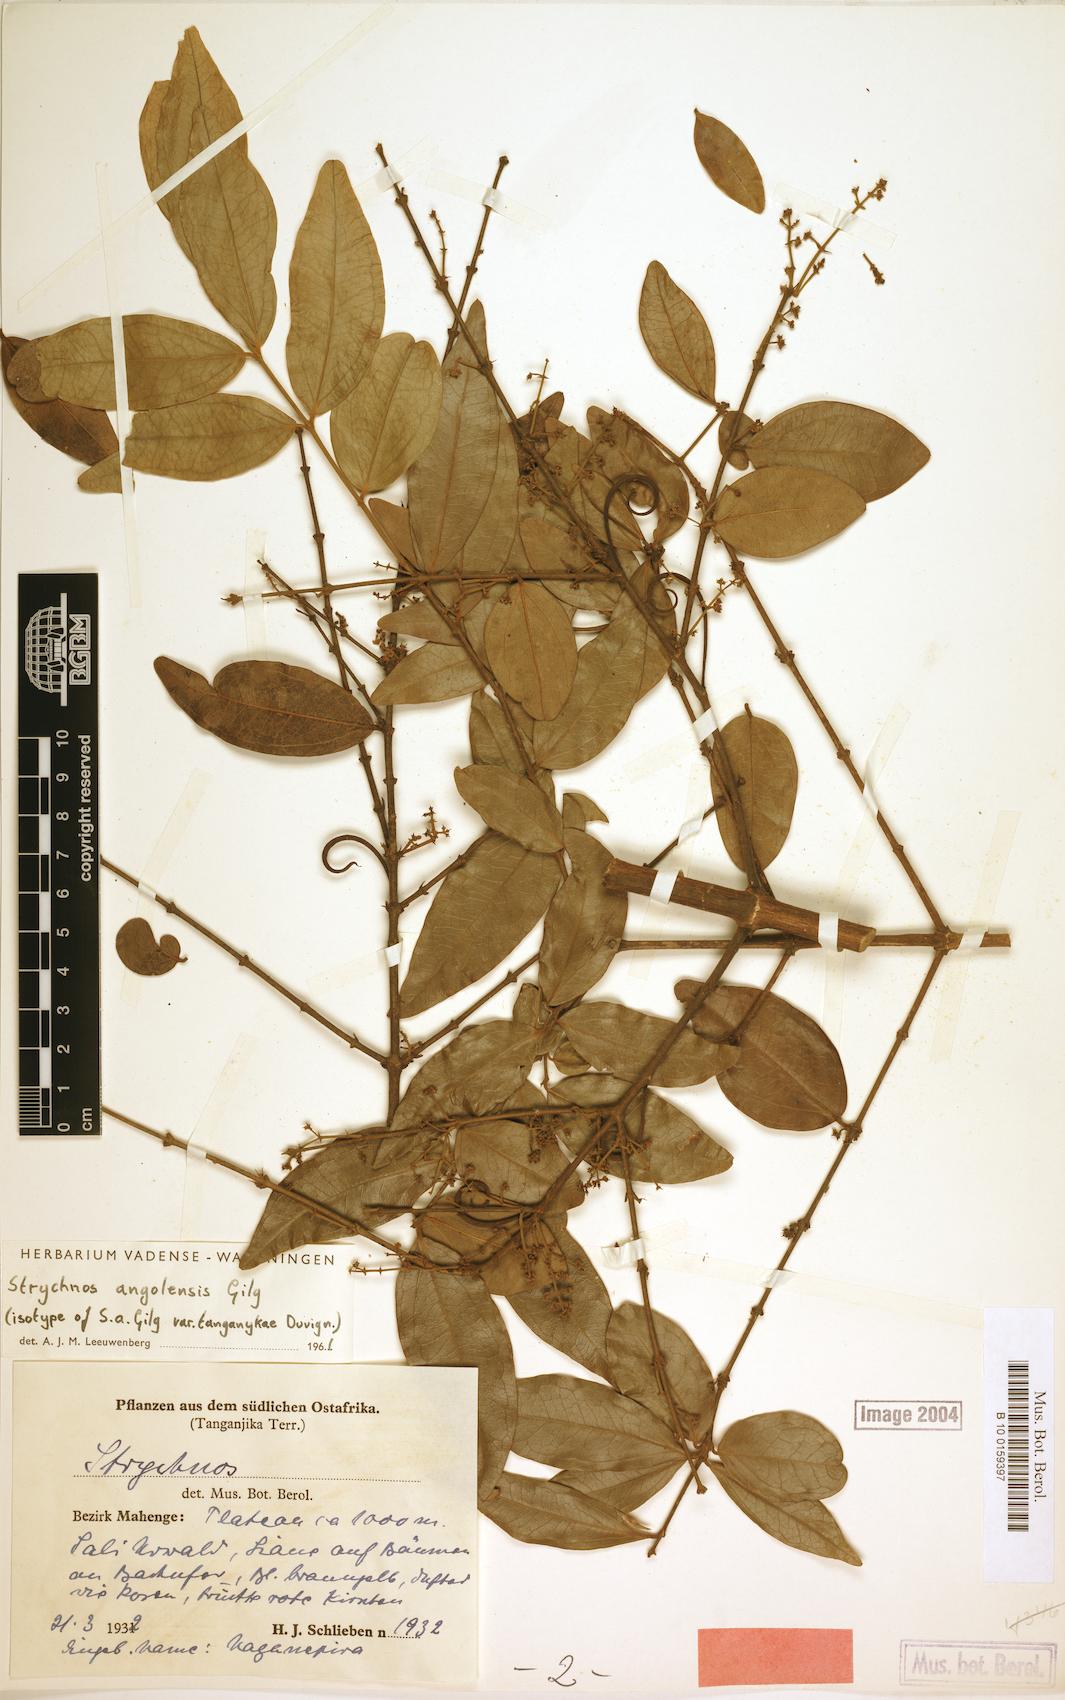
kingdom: Plantae
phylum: Tracheophyta
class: Magnoliopsida
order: Gentianales
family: Loganiaceae
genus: Strychnos
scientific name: Strychnos angolensis
